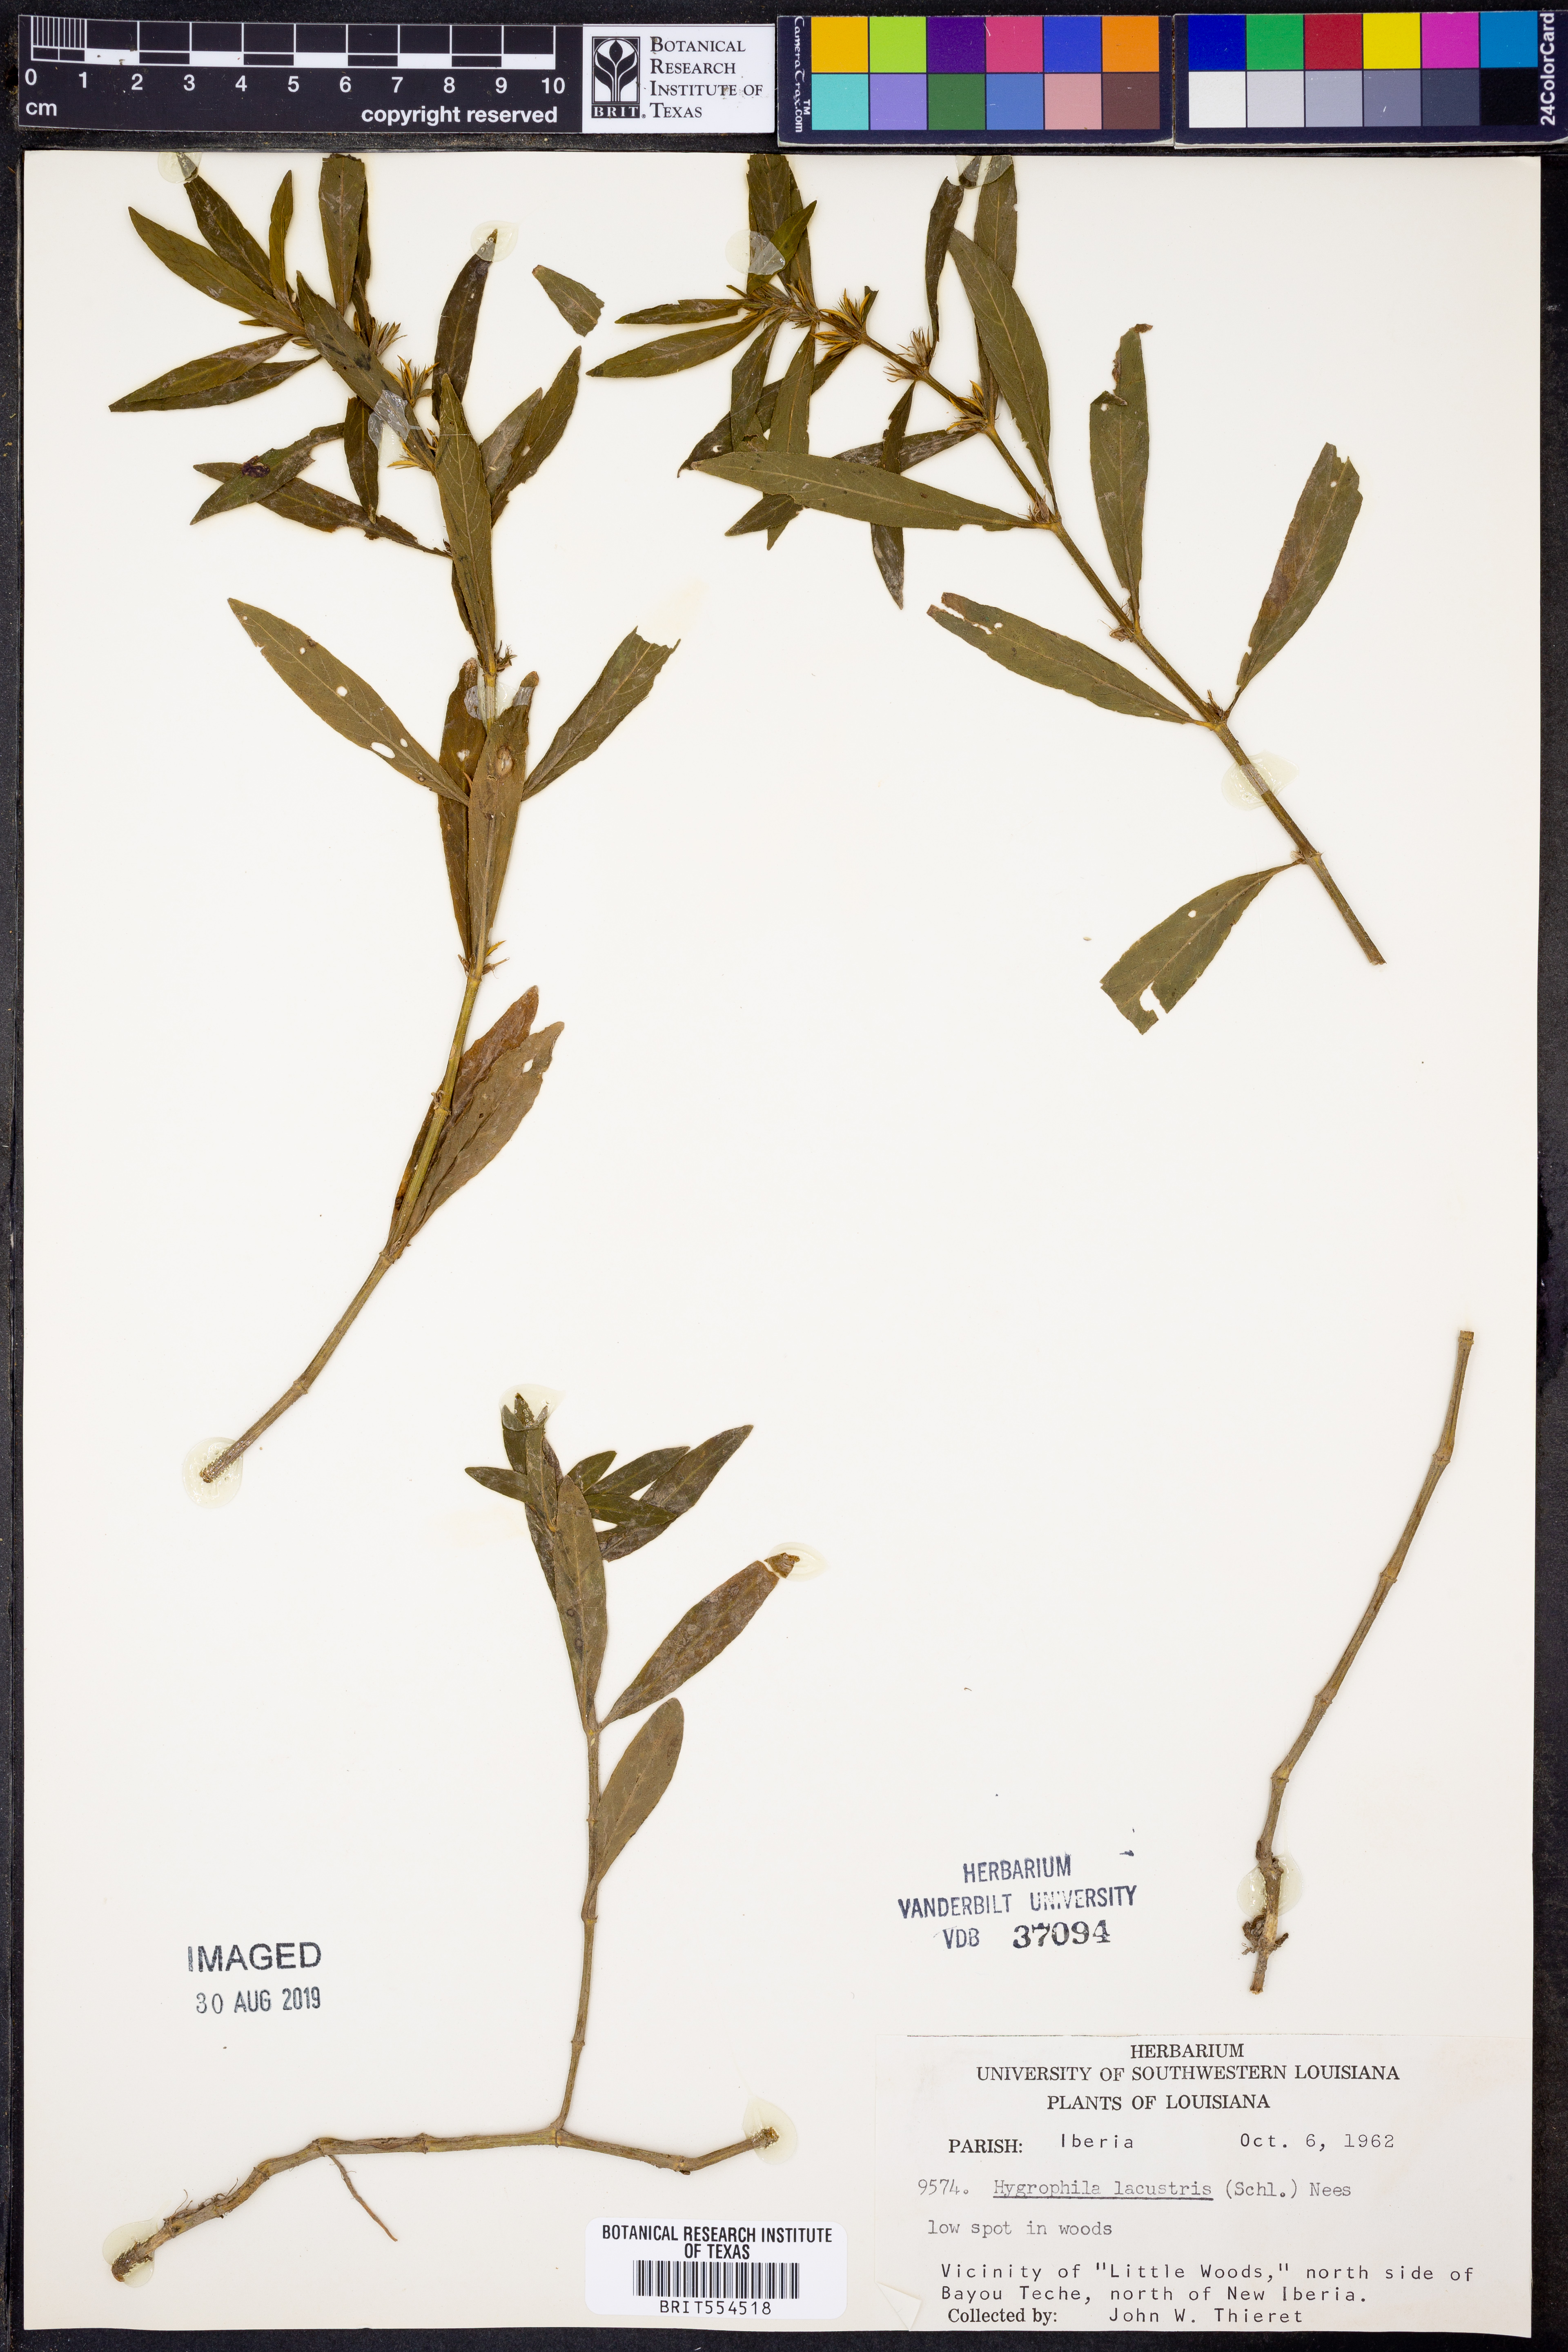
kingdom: Plantae
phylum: Tracheophyta
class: Magnoliopsida
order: Lamiales
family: Acanthaceae
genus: Hygrophila
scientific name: Hygrophila costata
